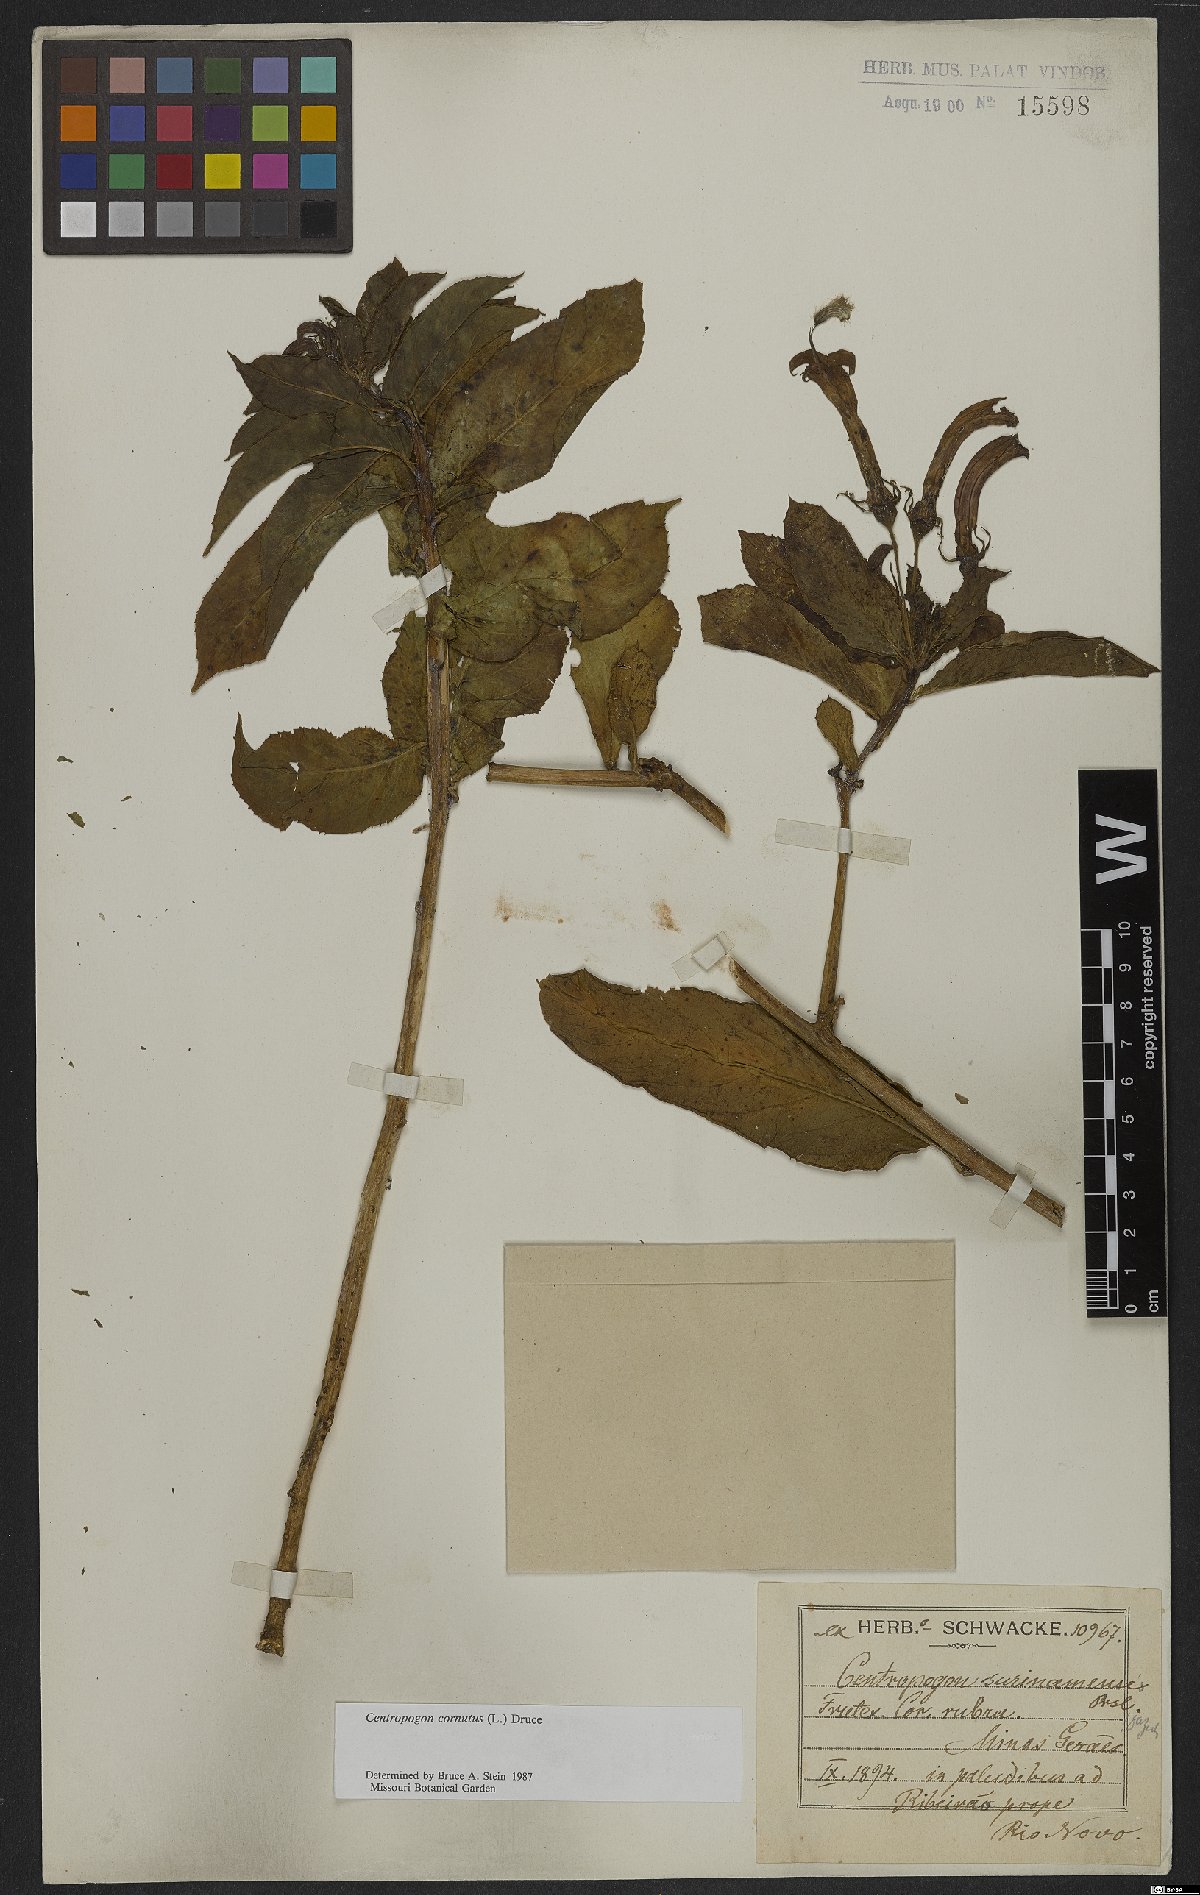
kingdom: Plantae
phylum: Tracheophyta
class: Magnoliopsida
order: Asterales
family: Campanulaceae
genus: Centropogon
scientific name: Centropogon cornutus
